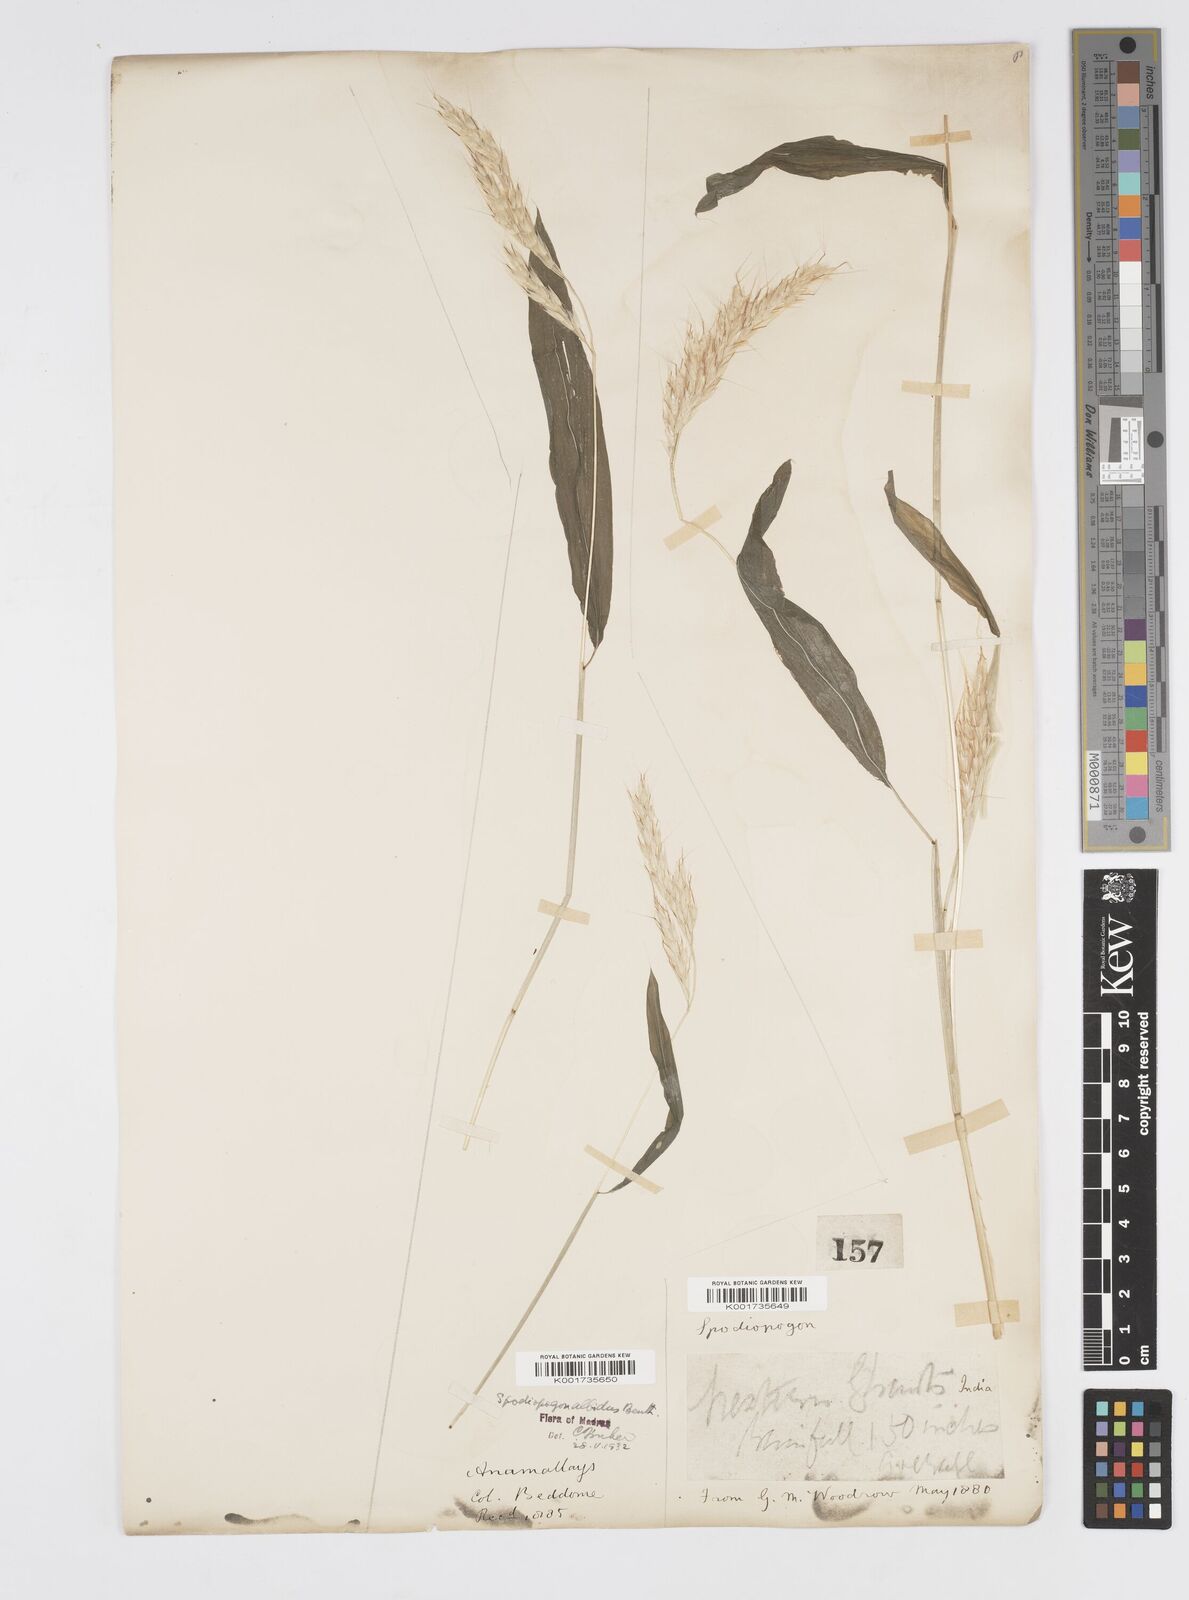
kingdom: Plantae
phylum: Tracheophyta
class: Liliopsida
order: Poales
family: Poaceae
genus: Spodiopogon
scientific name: Spodiopogon rhizophorus
